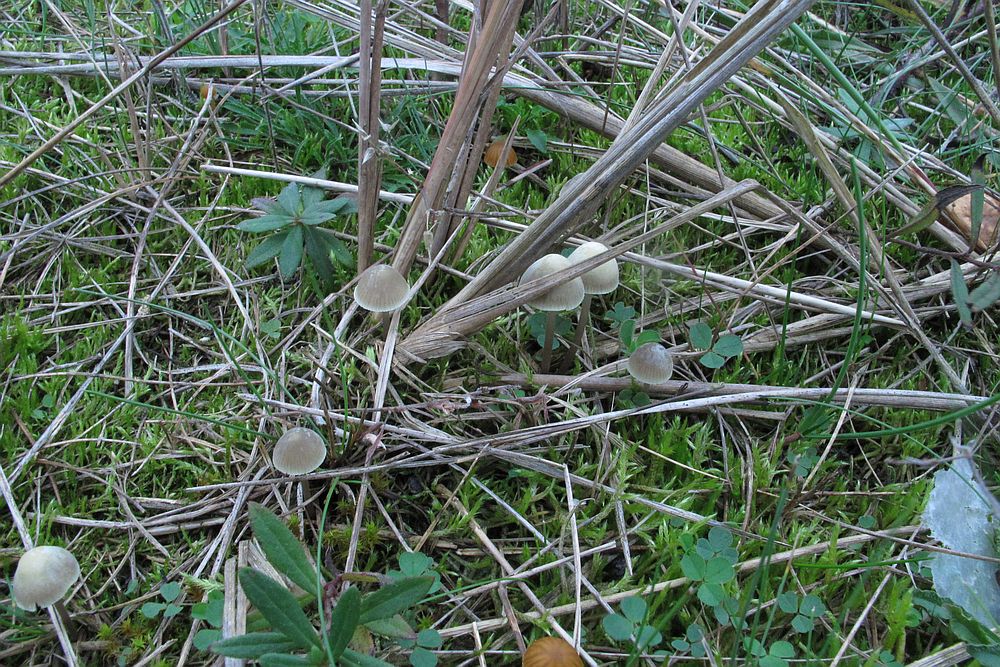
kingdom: Fungi
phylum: Basidiomycota
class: Agaricomycetes
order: Agaricales
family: Mycenaceae
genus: Mycena
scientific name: Mycena chlorantha
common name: klit-huesvamp
